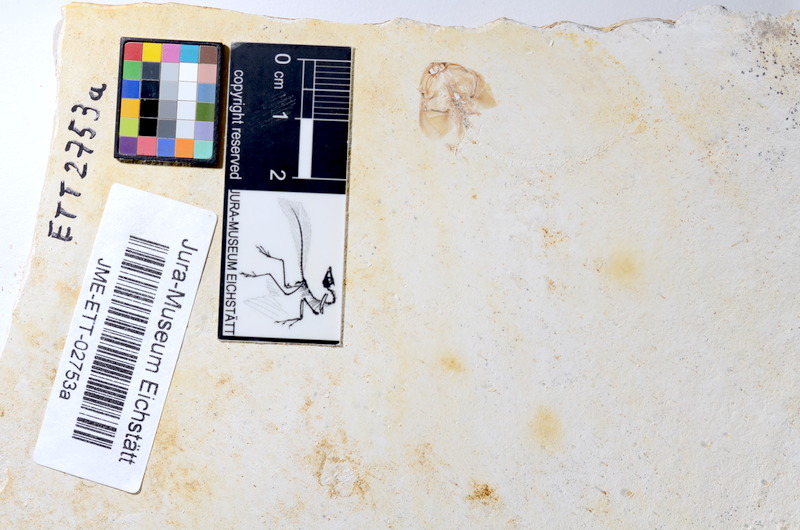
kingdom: Animalia
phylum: Chordata
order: Salmoniformes
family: Orthogonikleithridae
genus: Orthogonikleithrus
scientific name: Orthogonikleithrus hoelli
